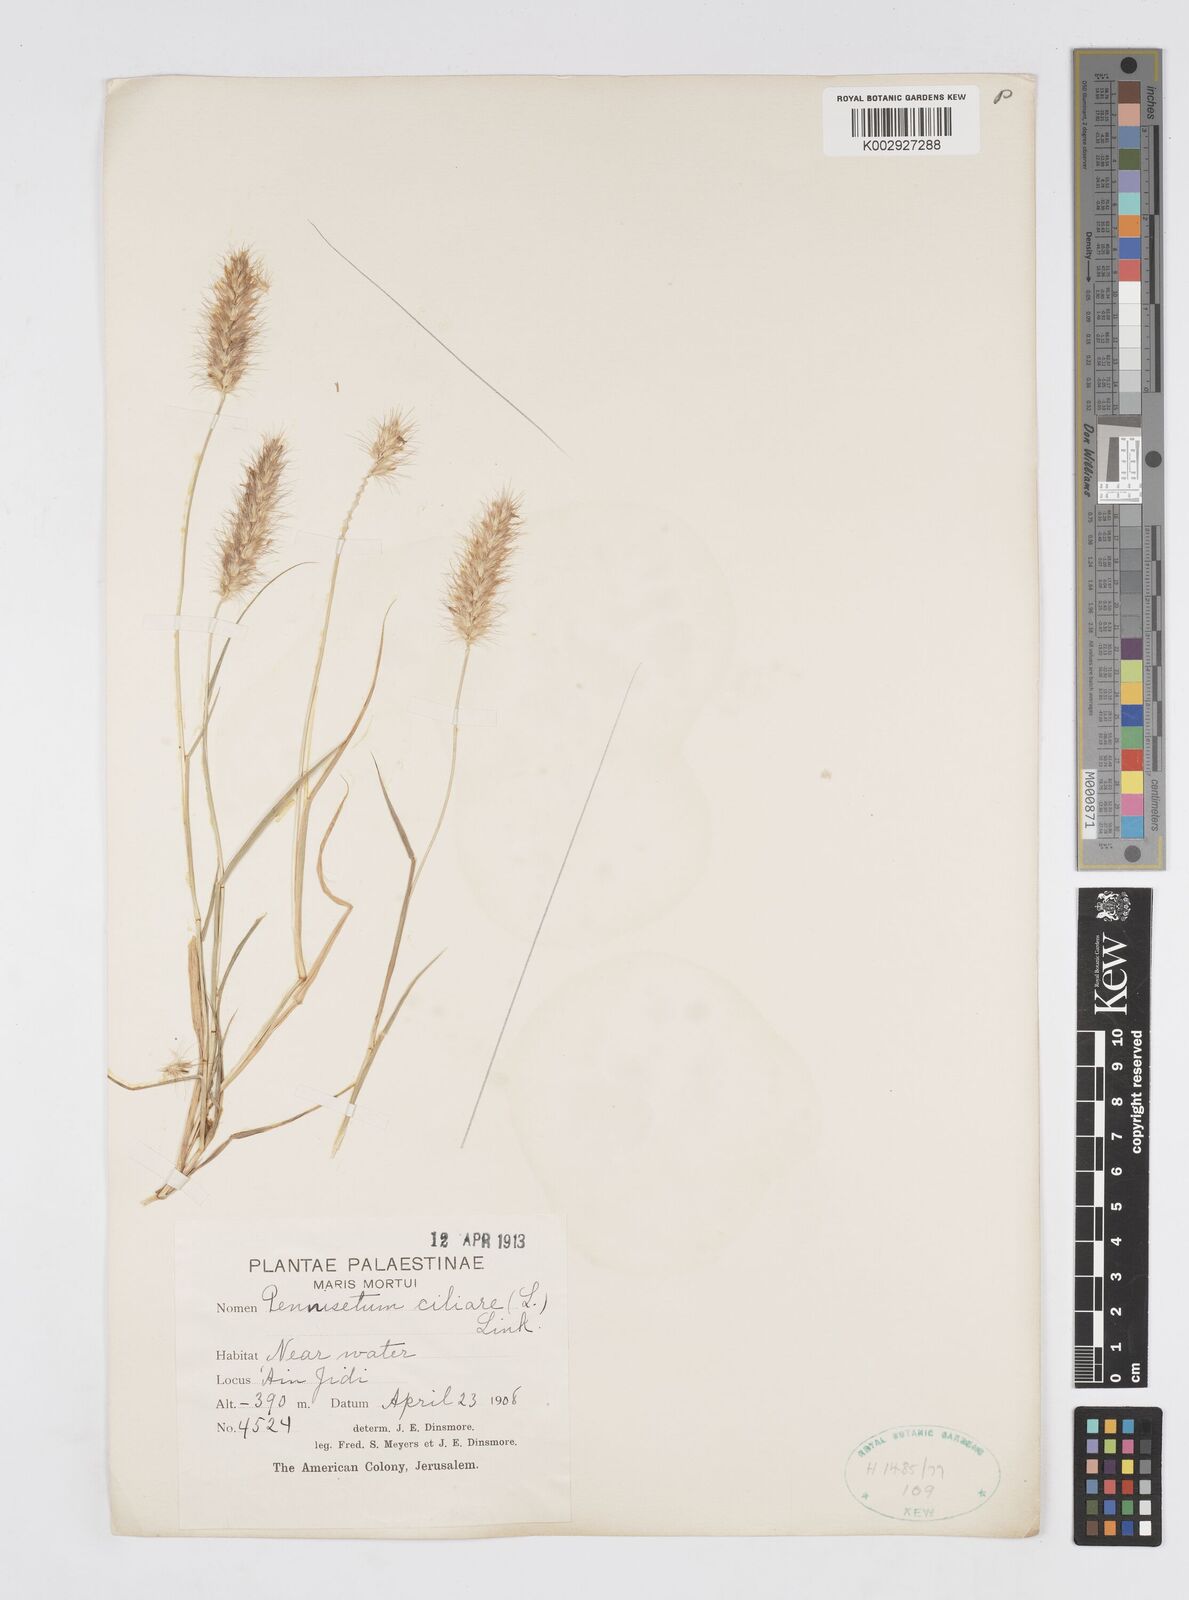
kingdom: Plantae
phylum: Tracheophyta
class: Liliopsida
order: Poales
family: Poaceae
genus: Cenchrus
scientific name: Cenchrus ciliaris
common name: Buffelgrass
